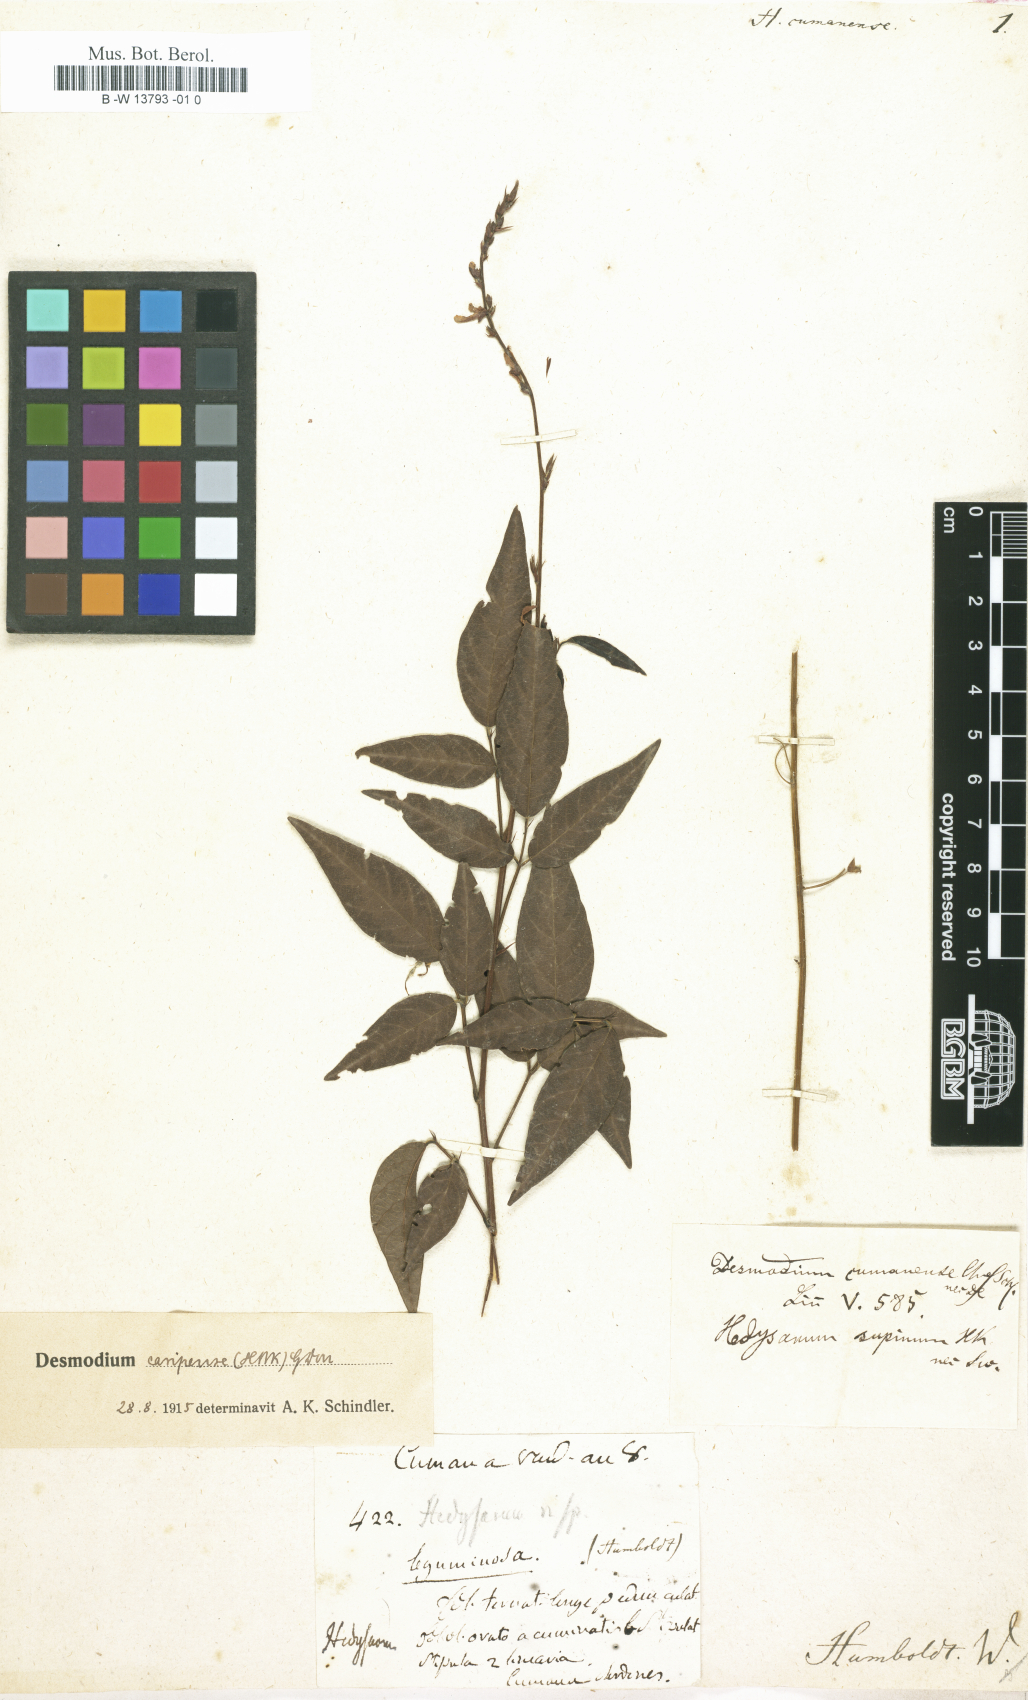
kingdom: Plantae
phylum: Tracheophyta
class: Magnoliopsida
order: Fabales
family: Fabaceae
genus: Desmodium
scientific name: Desmodium caripense
